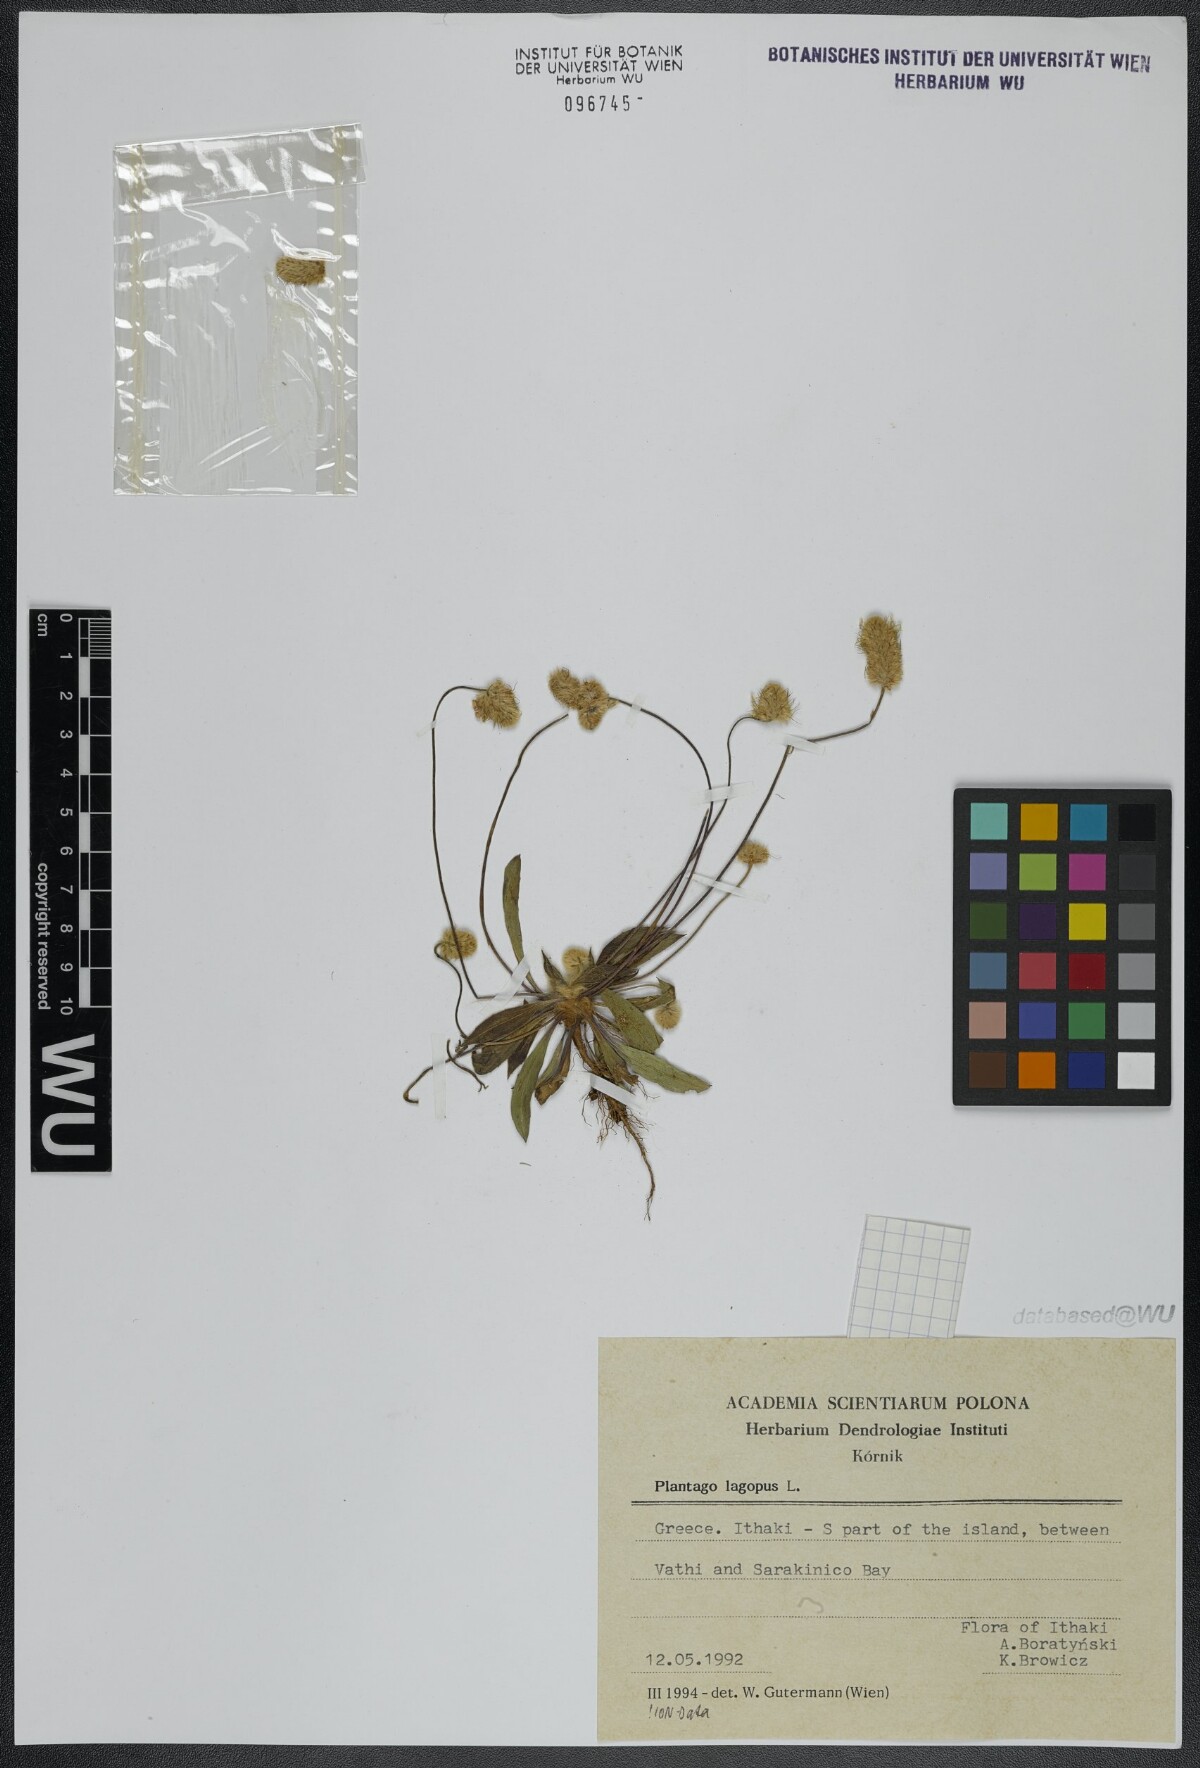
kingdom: Plantae
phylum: Tracheophyta
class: Magnoliopsida
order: Lamiales
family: Plantaginaceae
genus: Plantago
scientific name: Plantago lagopus
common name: Hare-foot plantain
